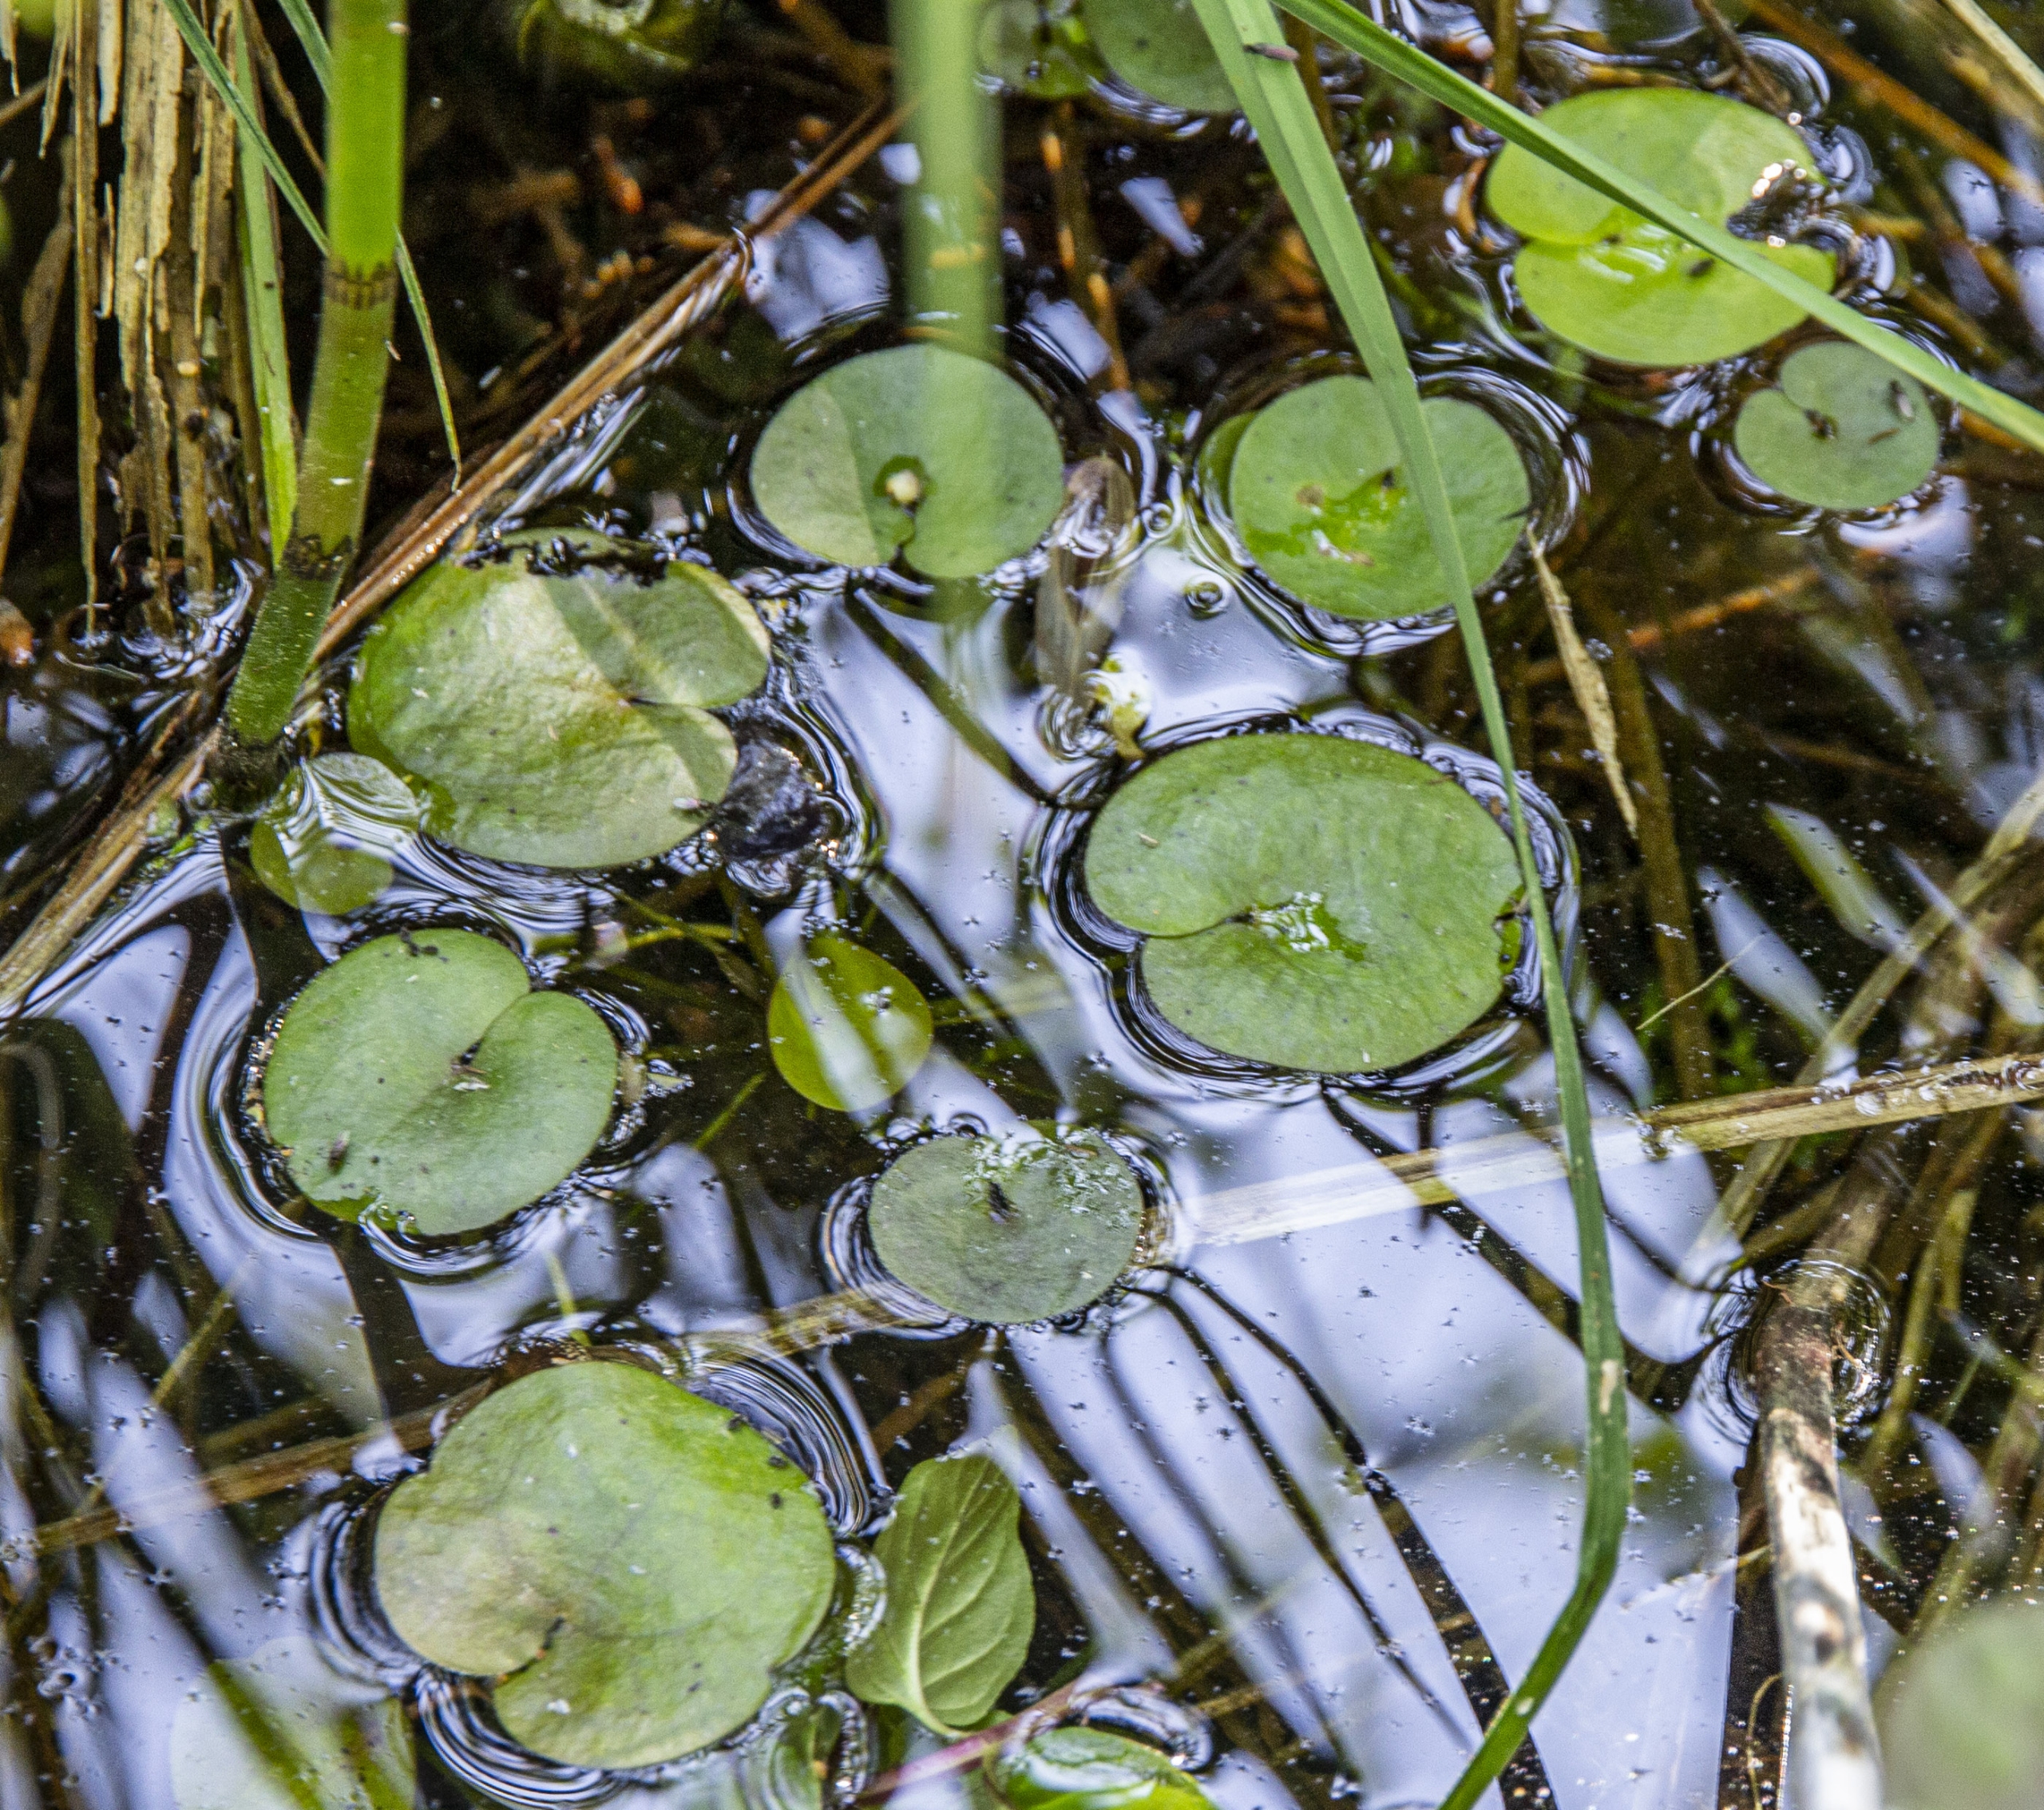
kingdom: Plantae
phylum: Tracheophyta
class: Liliopsida
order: Alismatales
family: Hydrocharitaceae
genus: Hydrocharis
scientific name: Hydrocharis morsus-ranae
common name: Frøbid
